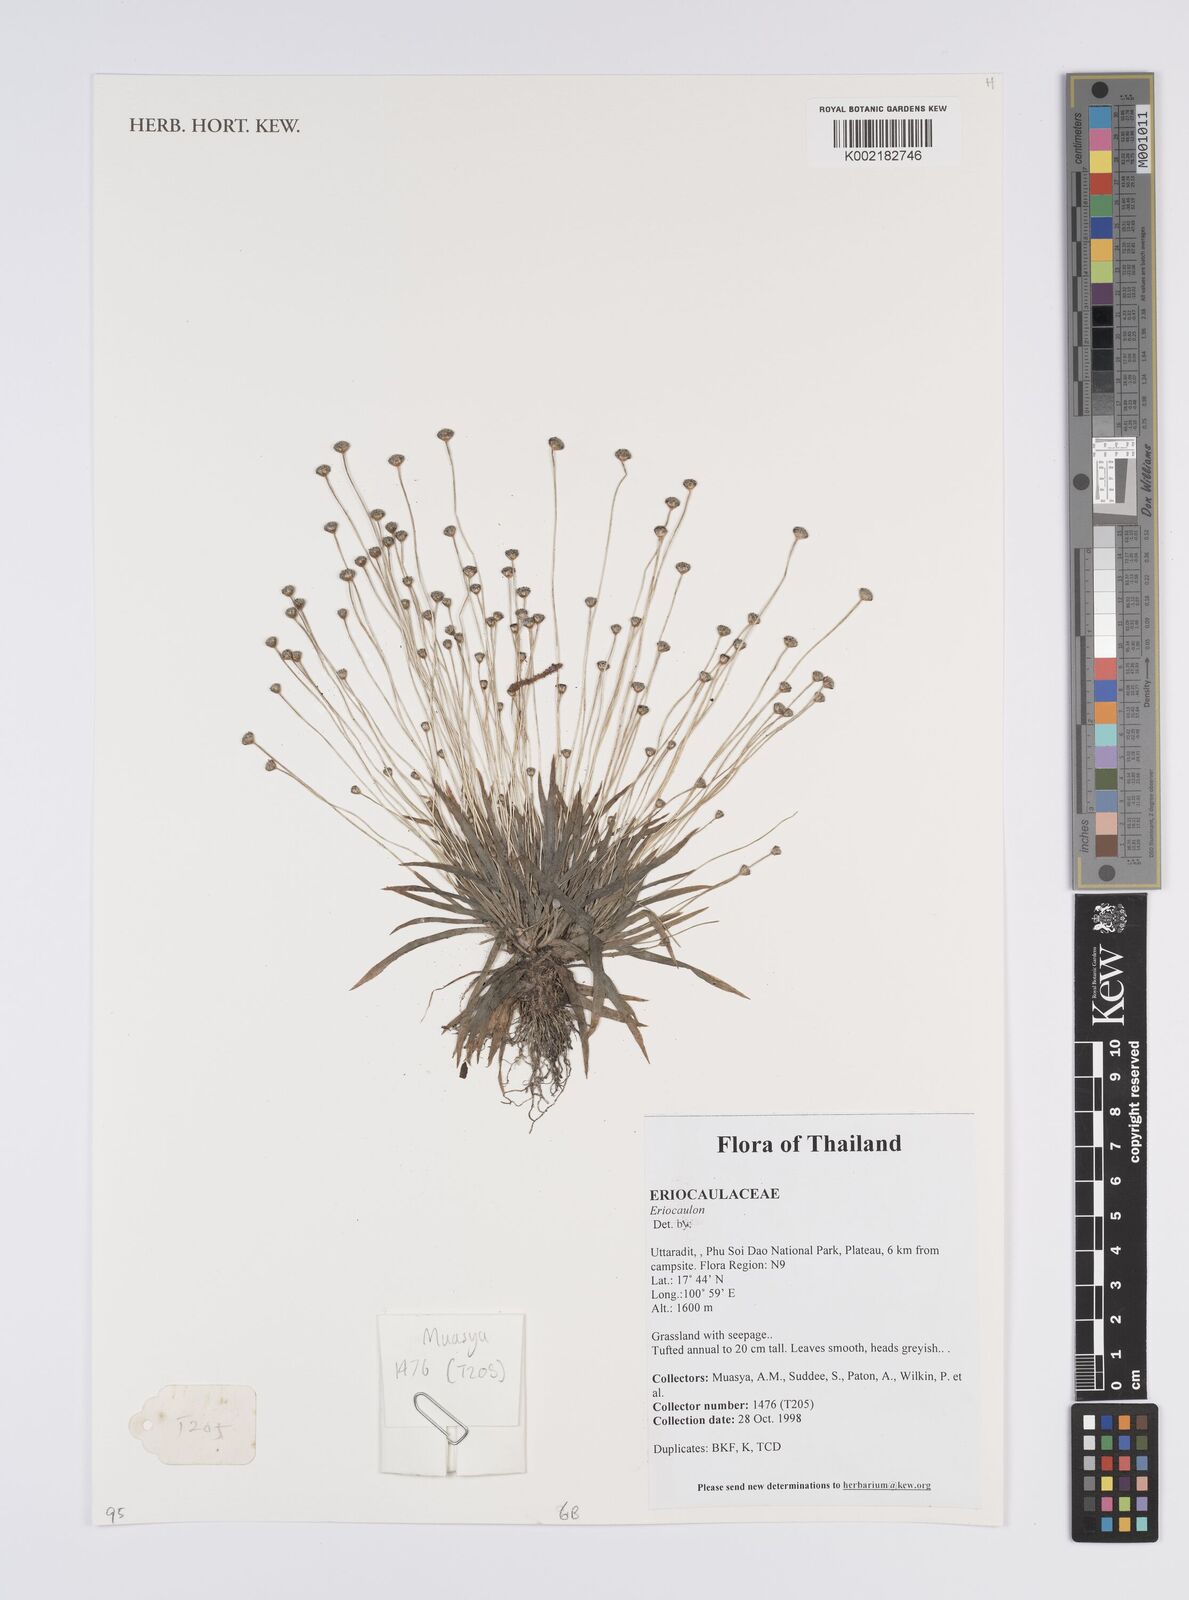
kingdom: Plantae
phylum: Tracheophyta
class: Liliopsida
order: Poales
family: Eriocaulaceae
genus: Eriocaulon
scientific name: Eriocaulon
